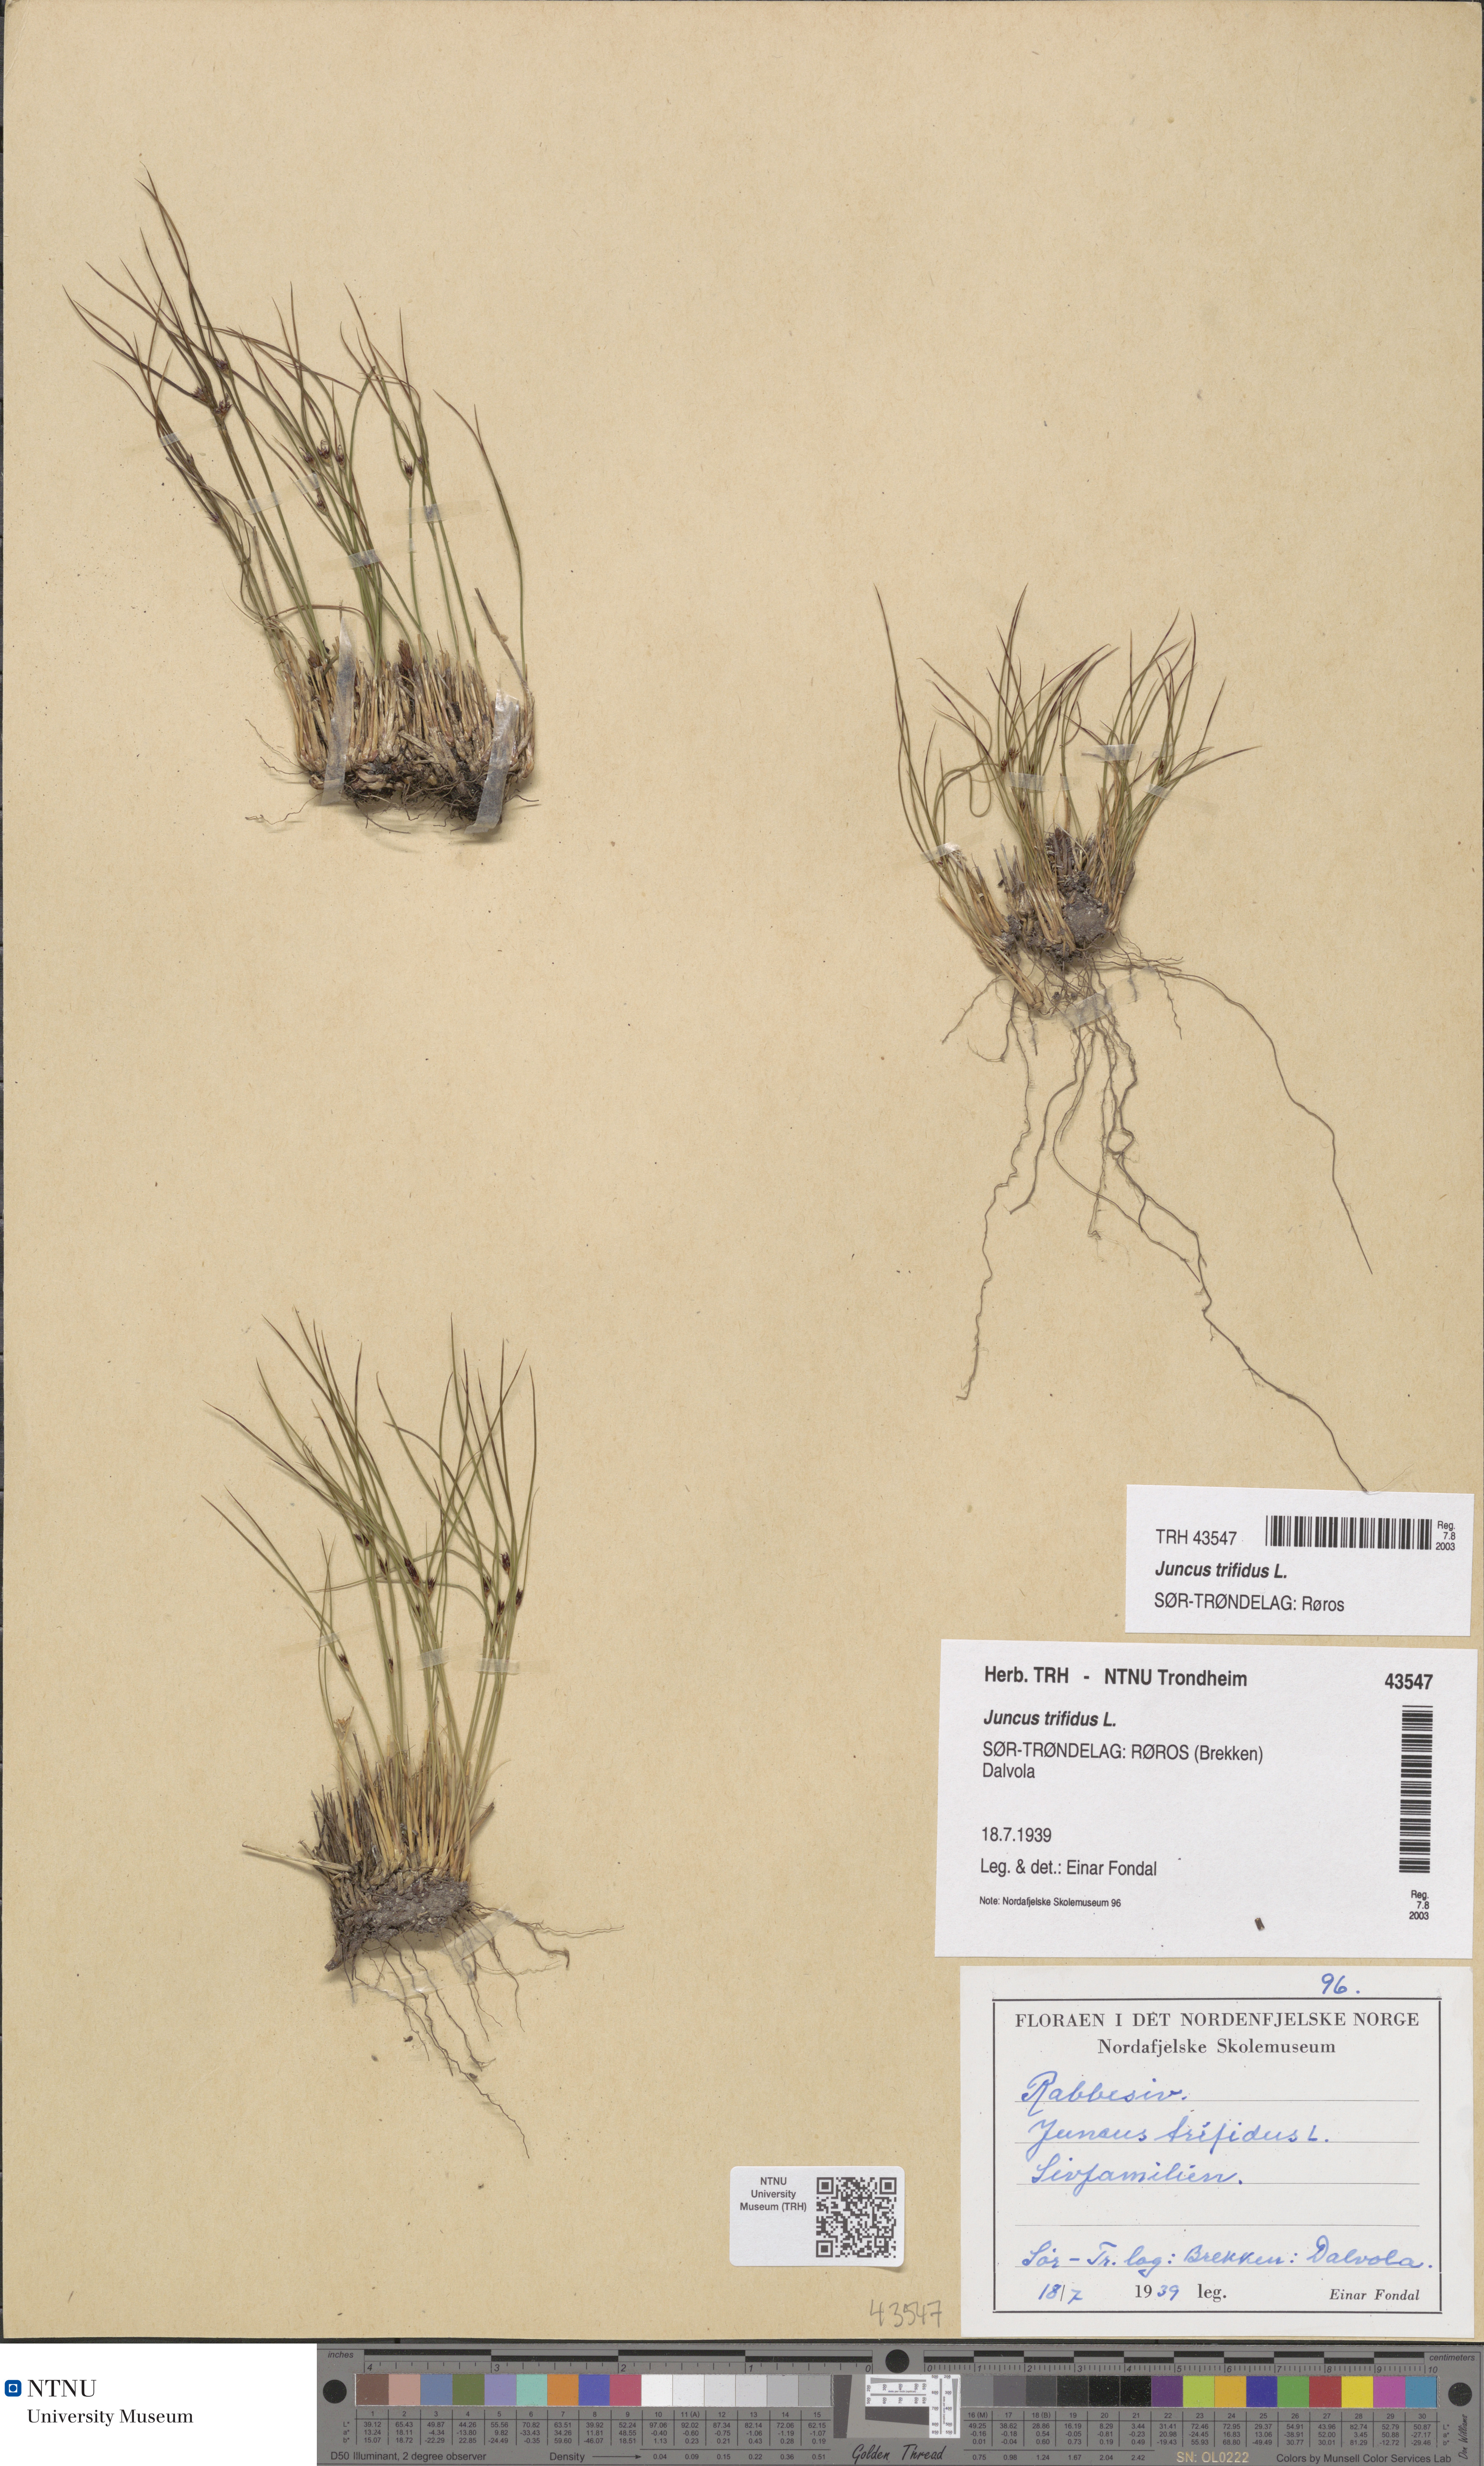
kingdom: Plantae
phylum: Tracheophyta
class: Liliopsida
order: Poales
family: Juncaceae
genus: Oreojuncus
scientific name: Oreojuncus trifidus
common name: Highland rush
